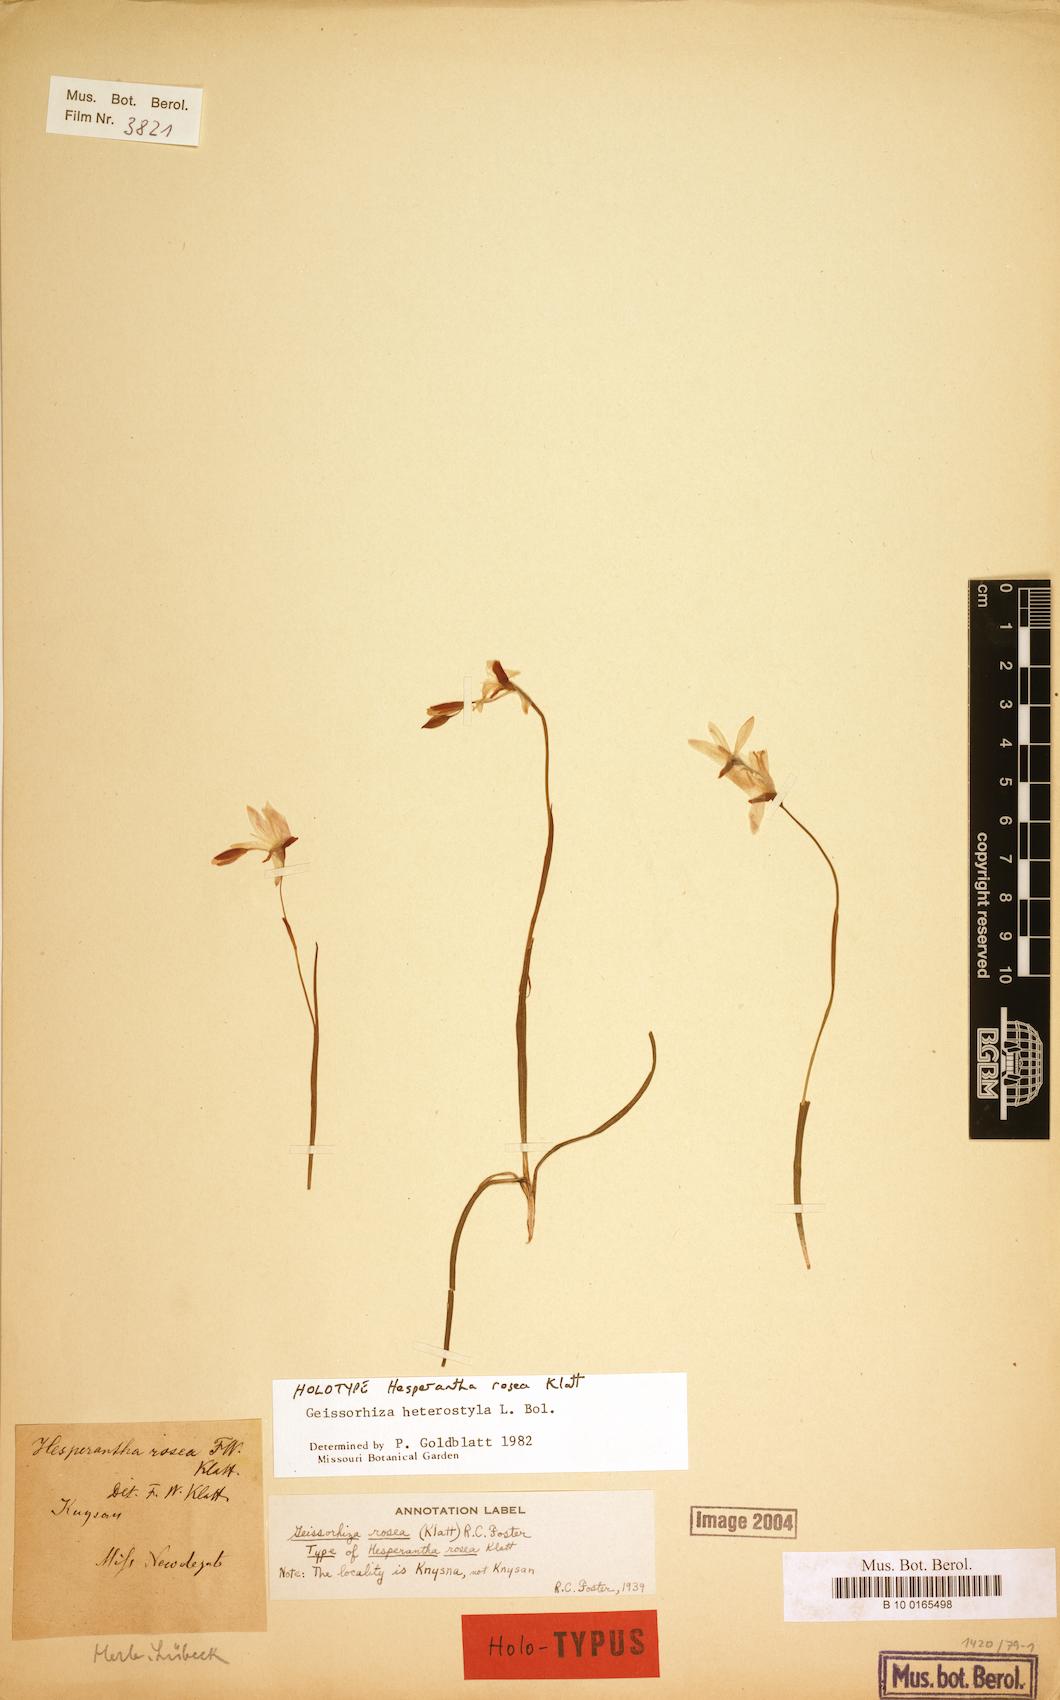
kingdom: Plantae
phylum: Tracheophyta
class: Liliopsida
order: Asparagales
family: Iridaceae
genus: Geissorhiza
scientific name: Geissorhiza heterostyla
